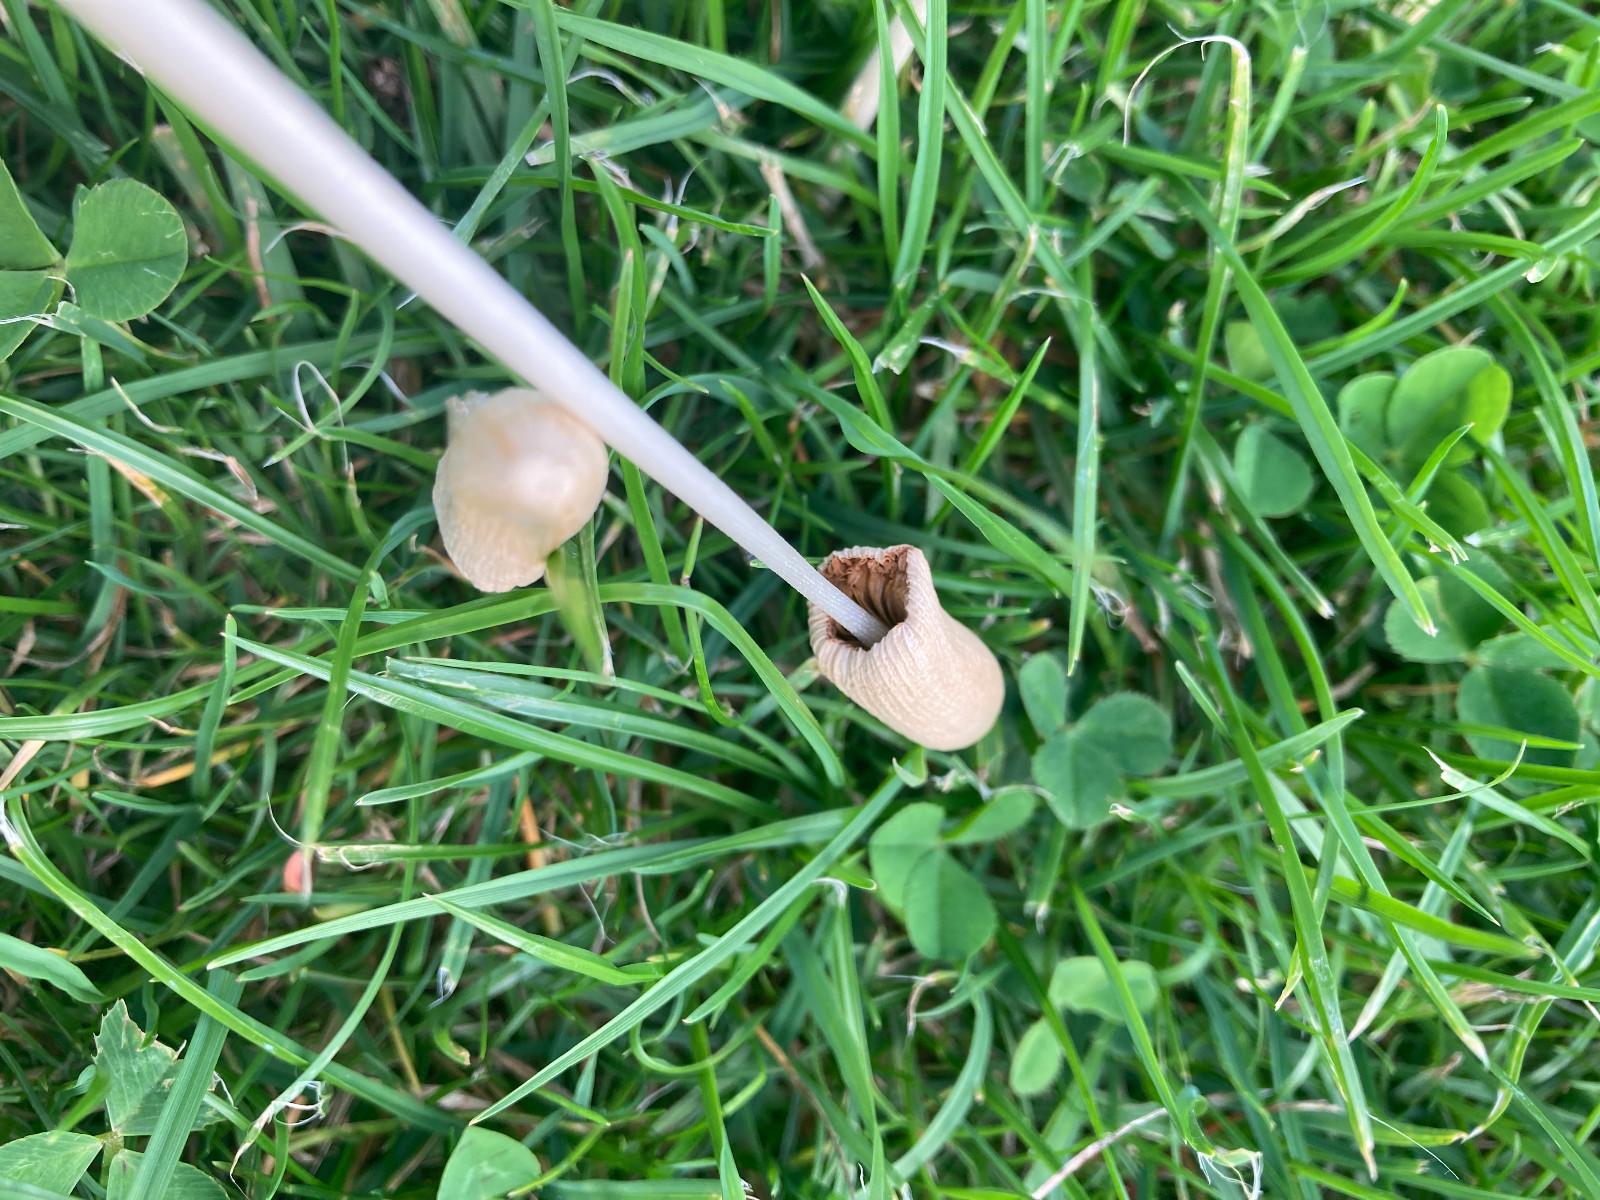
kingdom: Fungi
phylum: Basidiomycota
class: Agaricomycetes
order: Agaricales
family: Bolbitiaceae
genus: Conocybe
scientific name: Conocybe apala
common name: mælkehvid keglehat
